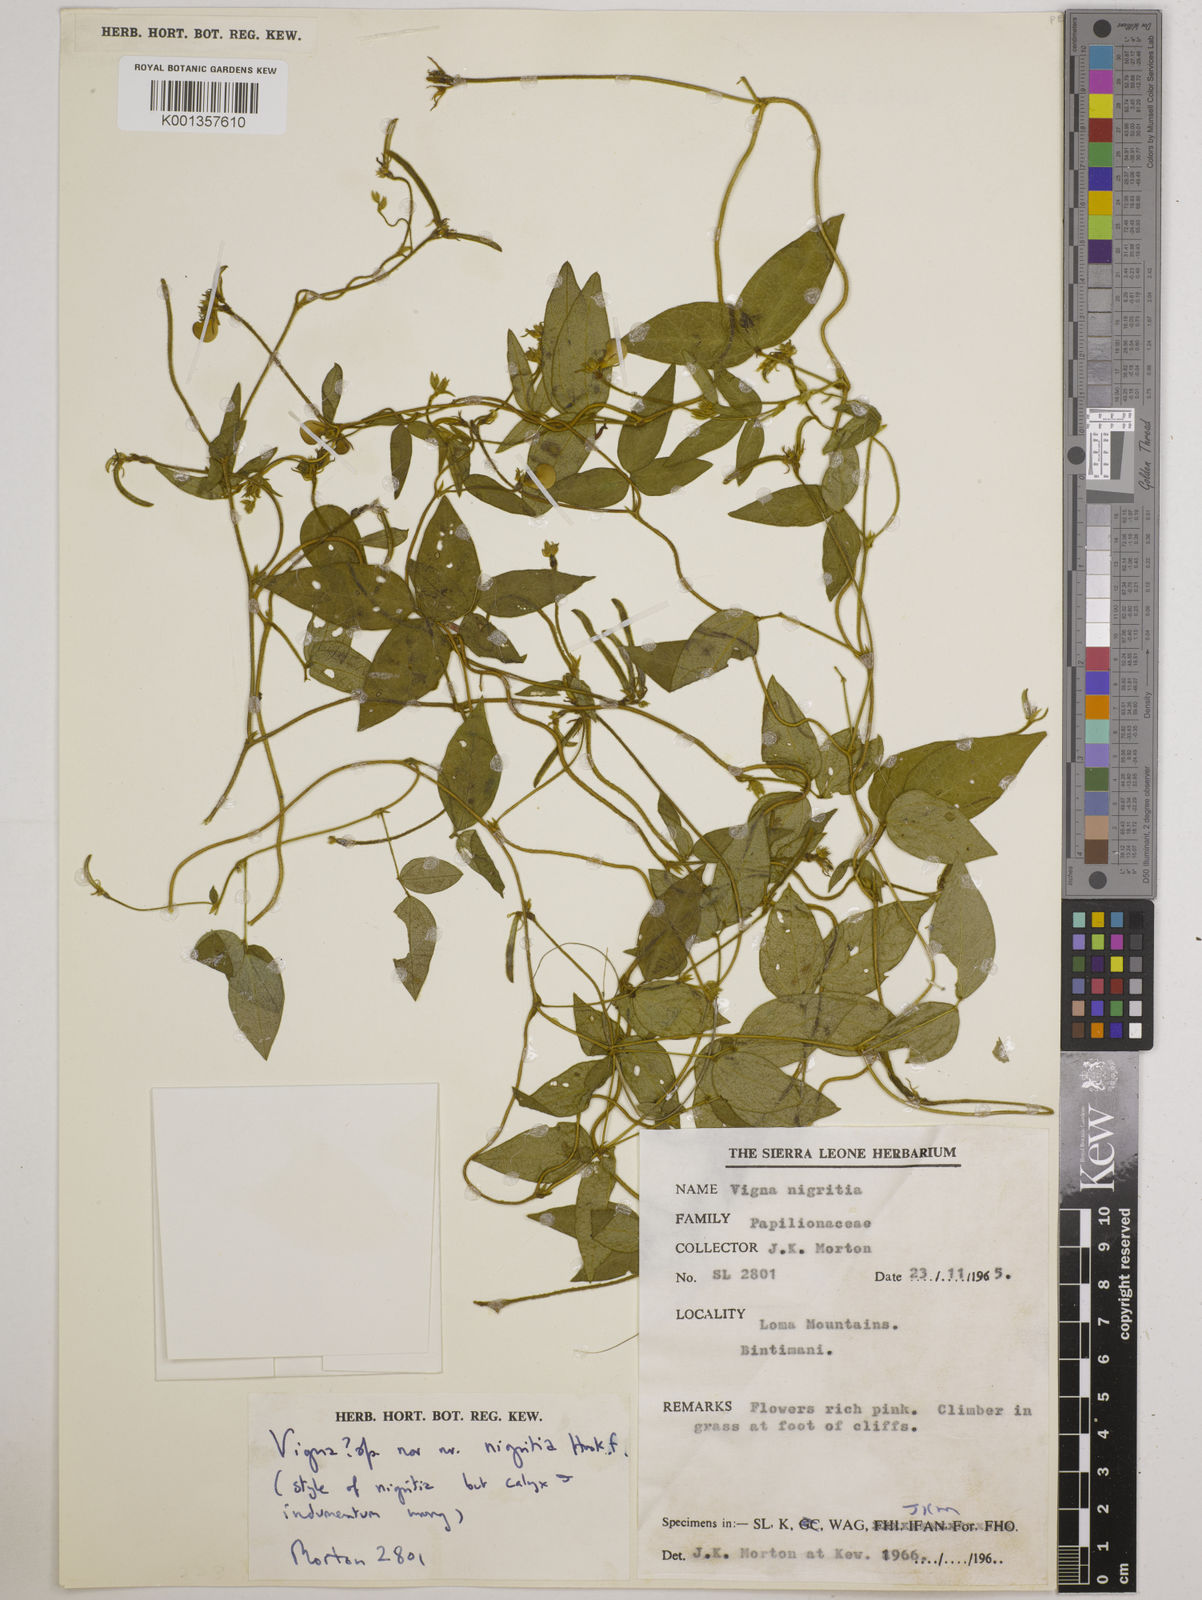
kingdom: Plantae
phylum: Tracheophyta
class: Magnoliopsida
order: Fabales
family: Fabaceae
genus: Vigna
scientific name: Vigna
